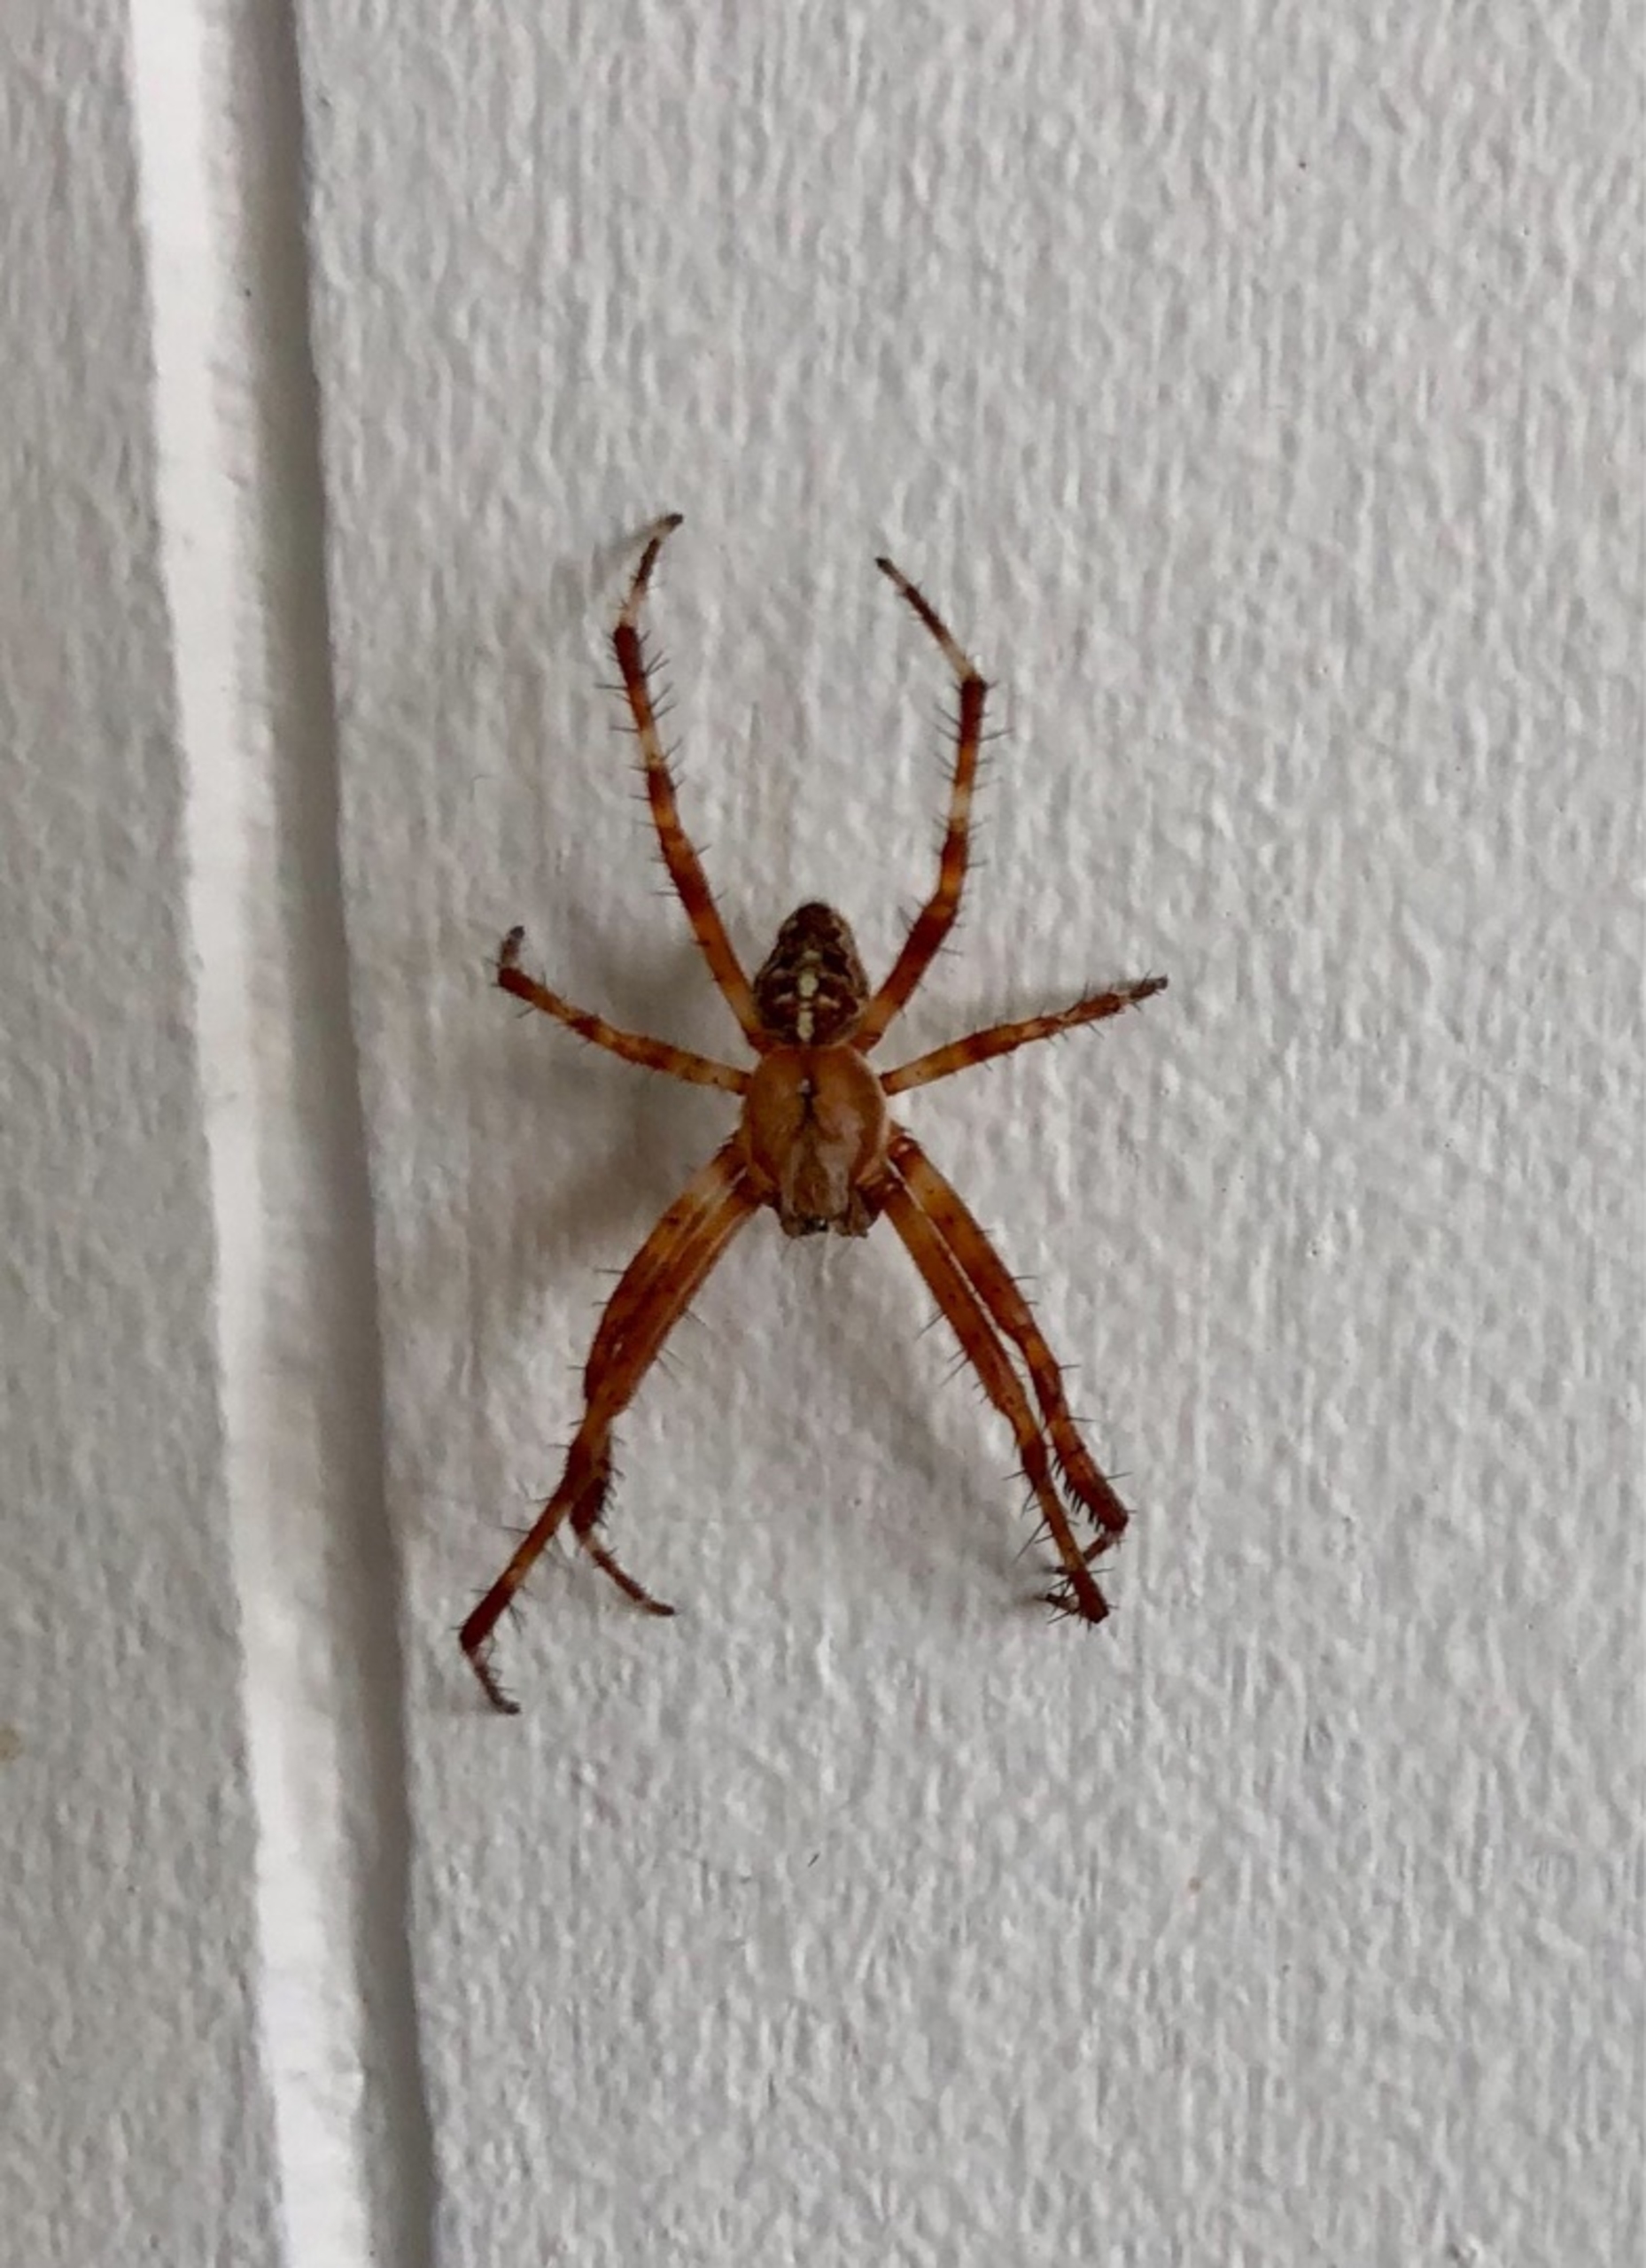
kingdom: Animalia
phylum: Arthropoda
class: Arachnida
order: Araneae
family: Araneidae
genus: Araneus
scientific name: Araneus diadematus
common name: Korsedderkop
